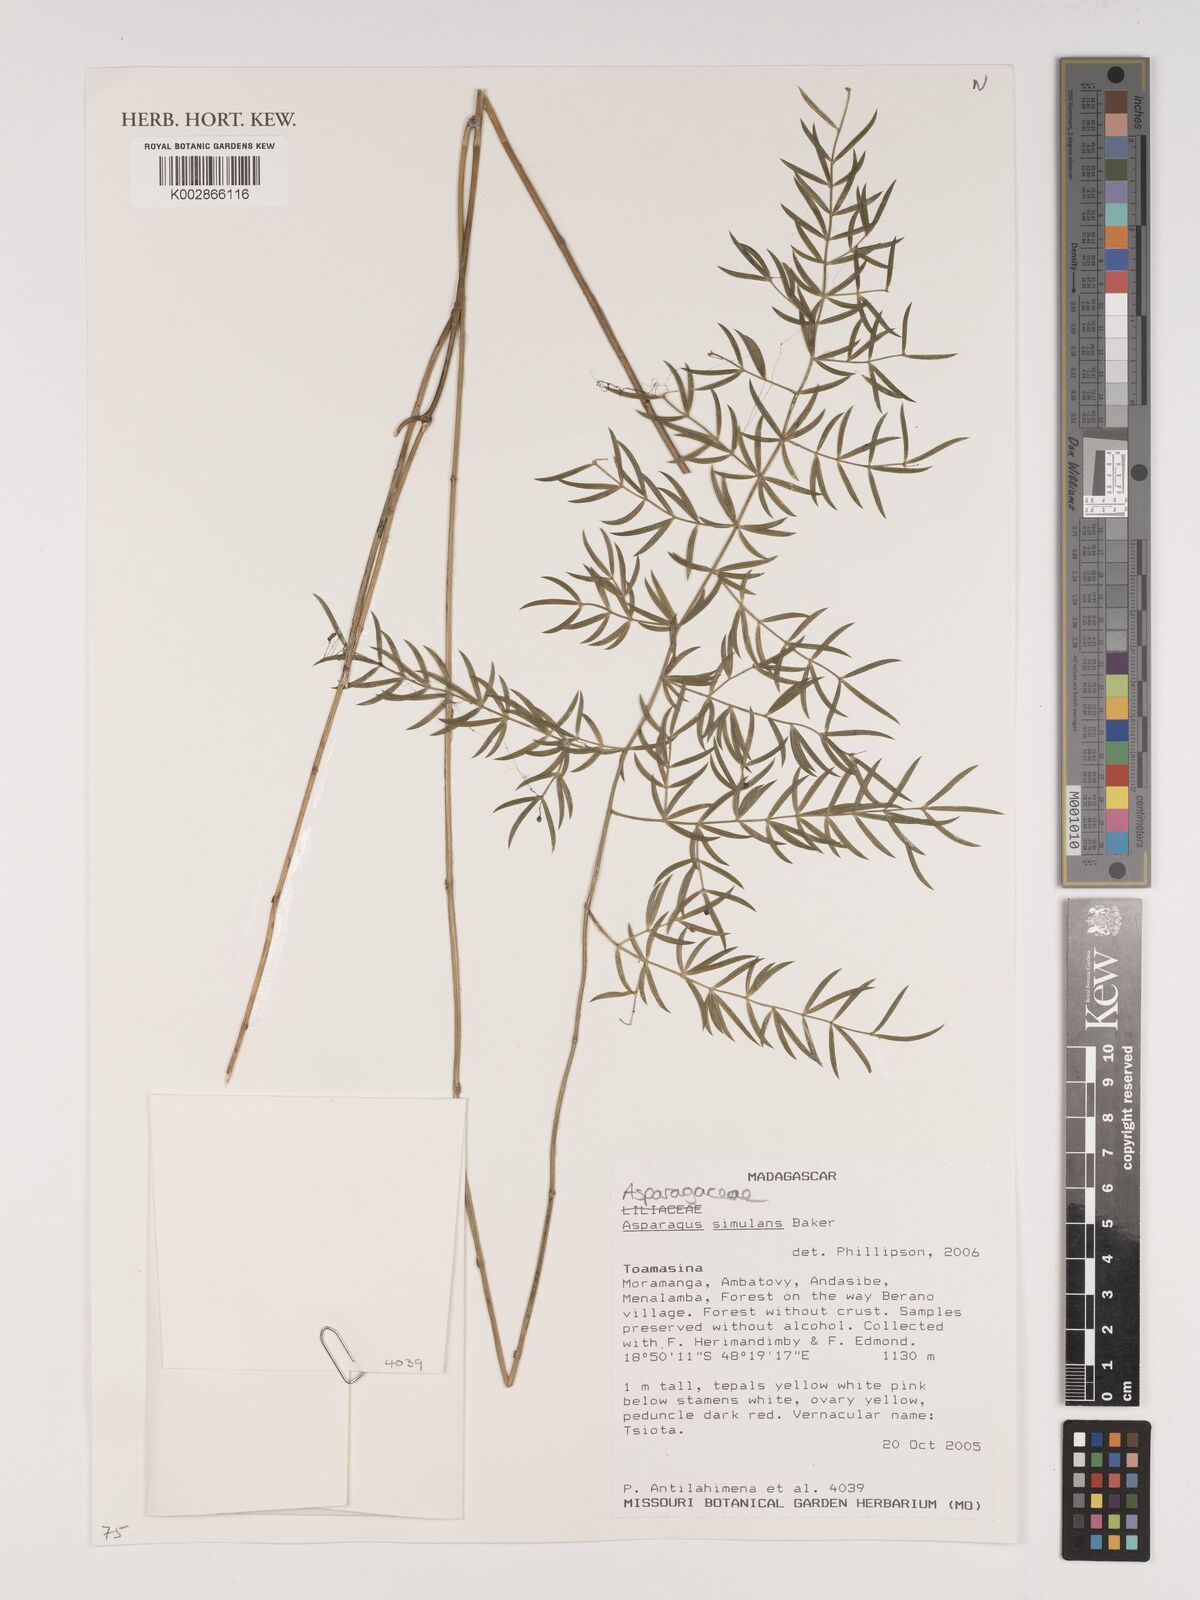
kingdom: Plantae
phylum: Tracheophyta
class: Liliopsida
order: Asparagales
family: Asparagaceae
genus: Asparagus
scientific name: Asparagus simulans
